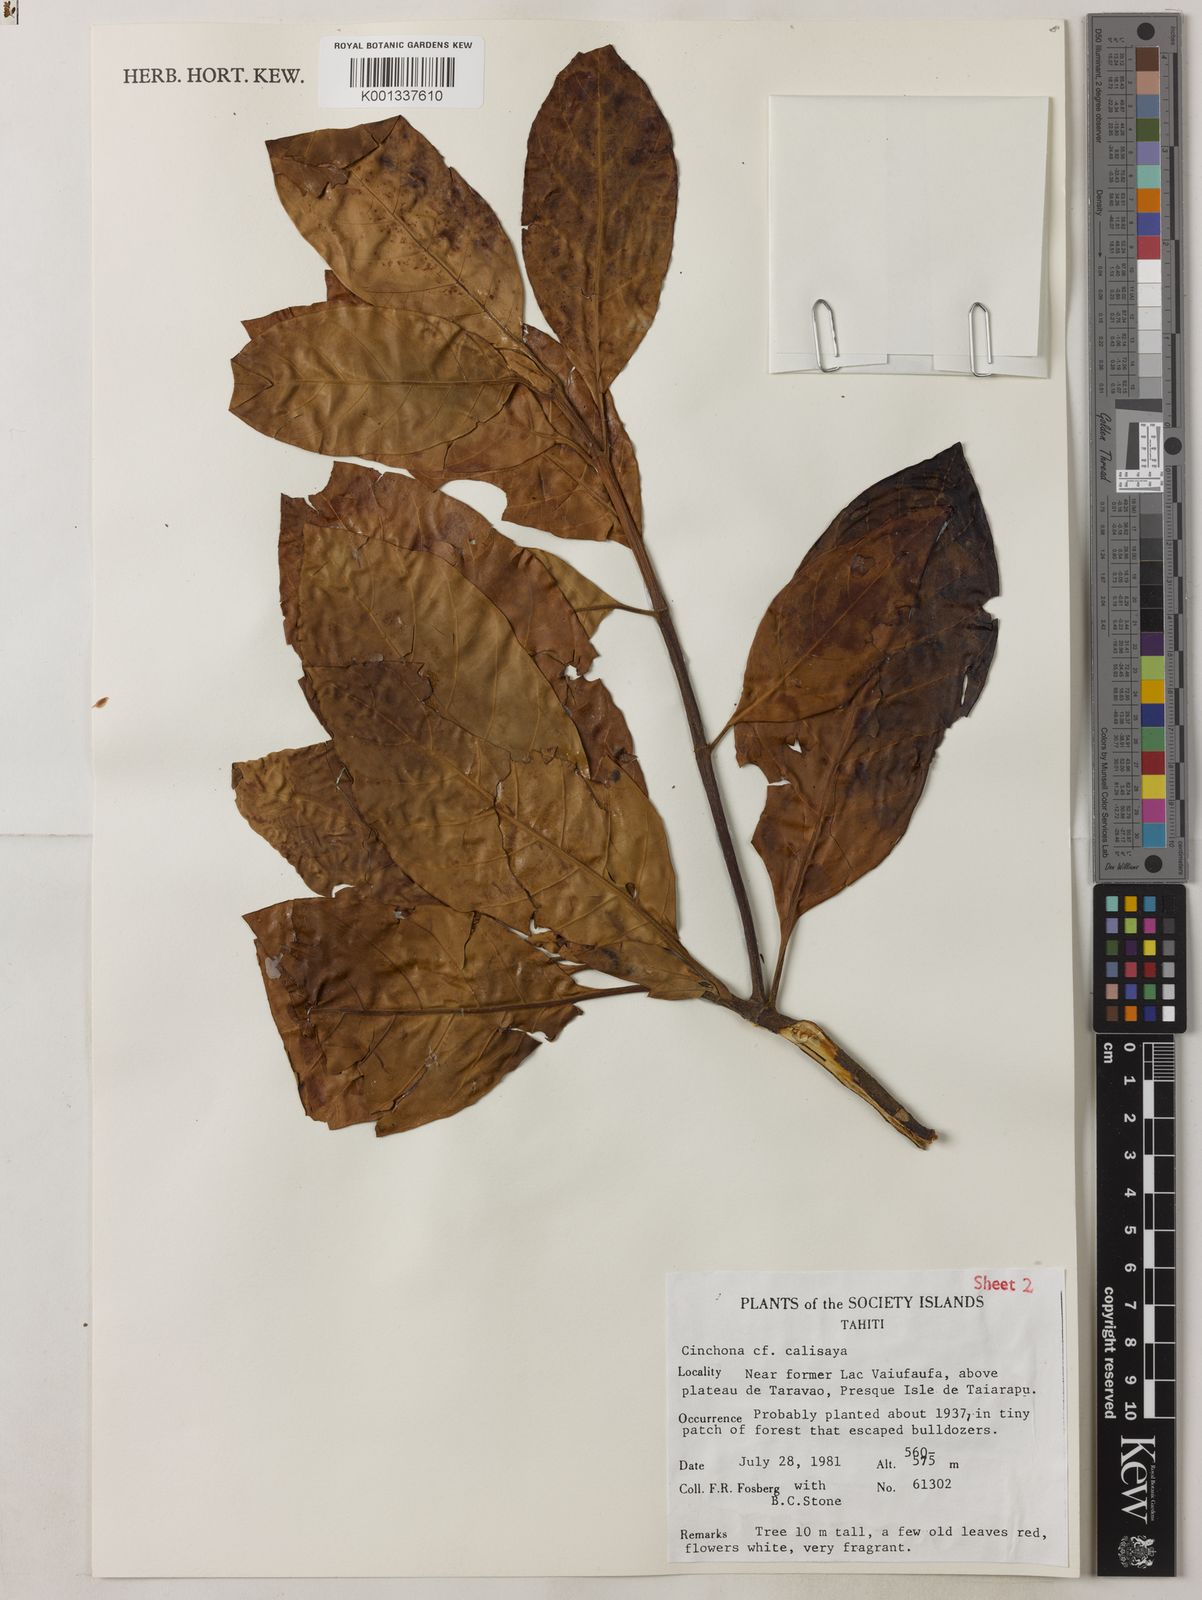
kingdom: Plantae
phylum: Tracheophyta
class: Magnoliopsida
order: Gentianales
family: Rubiaceae
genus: Cinchona
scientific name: Cinchona calisaya
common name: Ledgerbark
